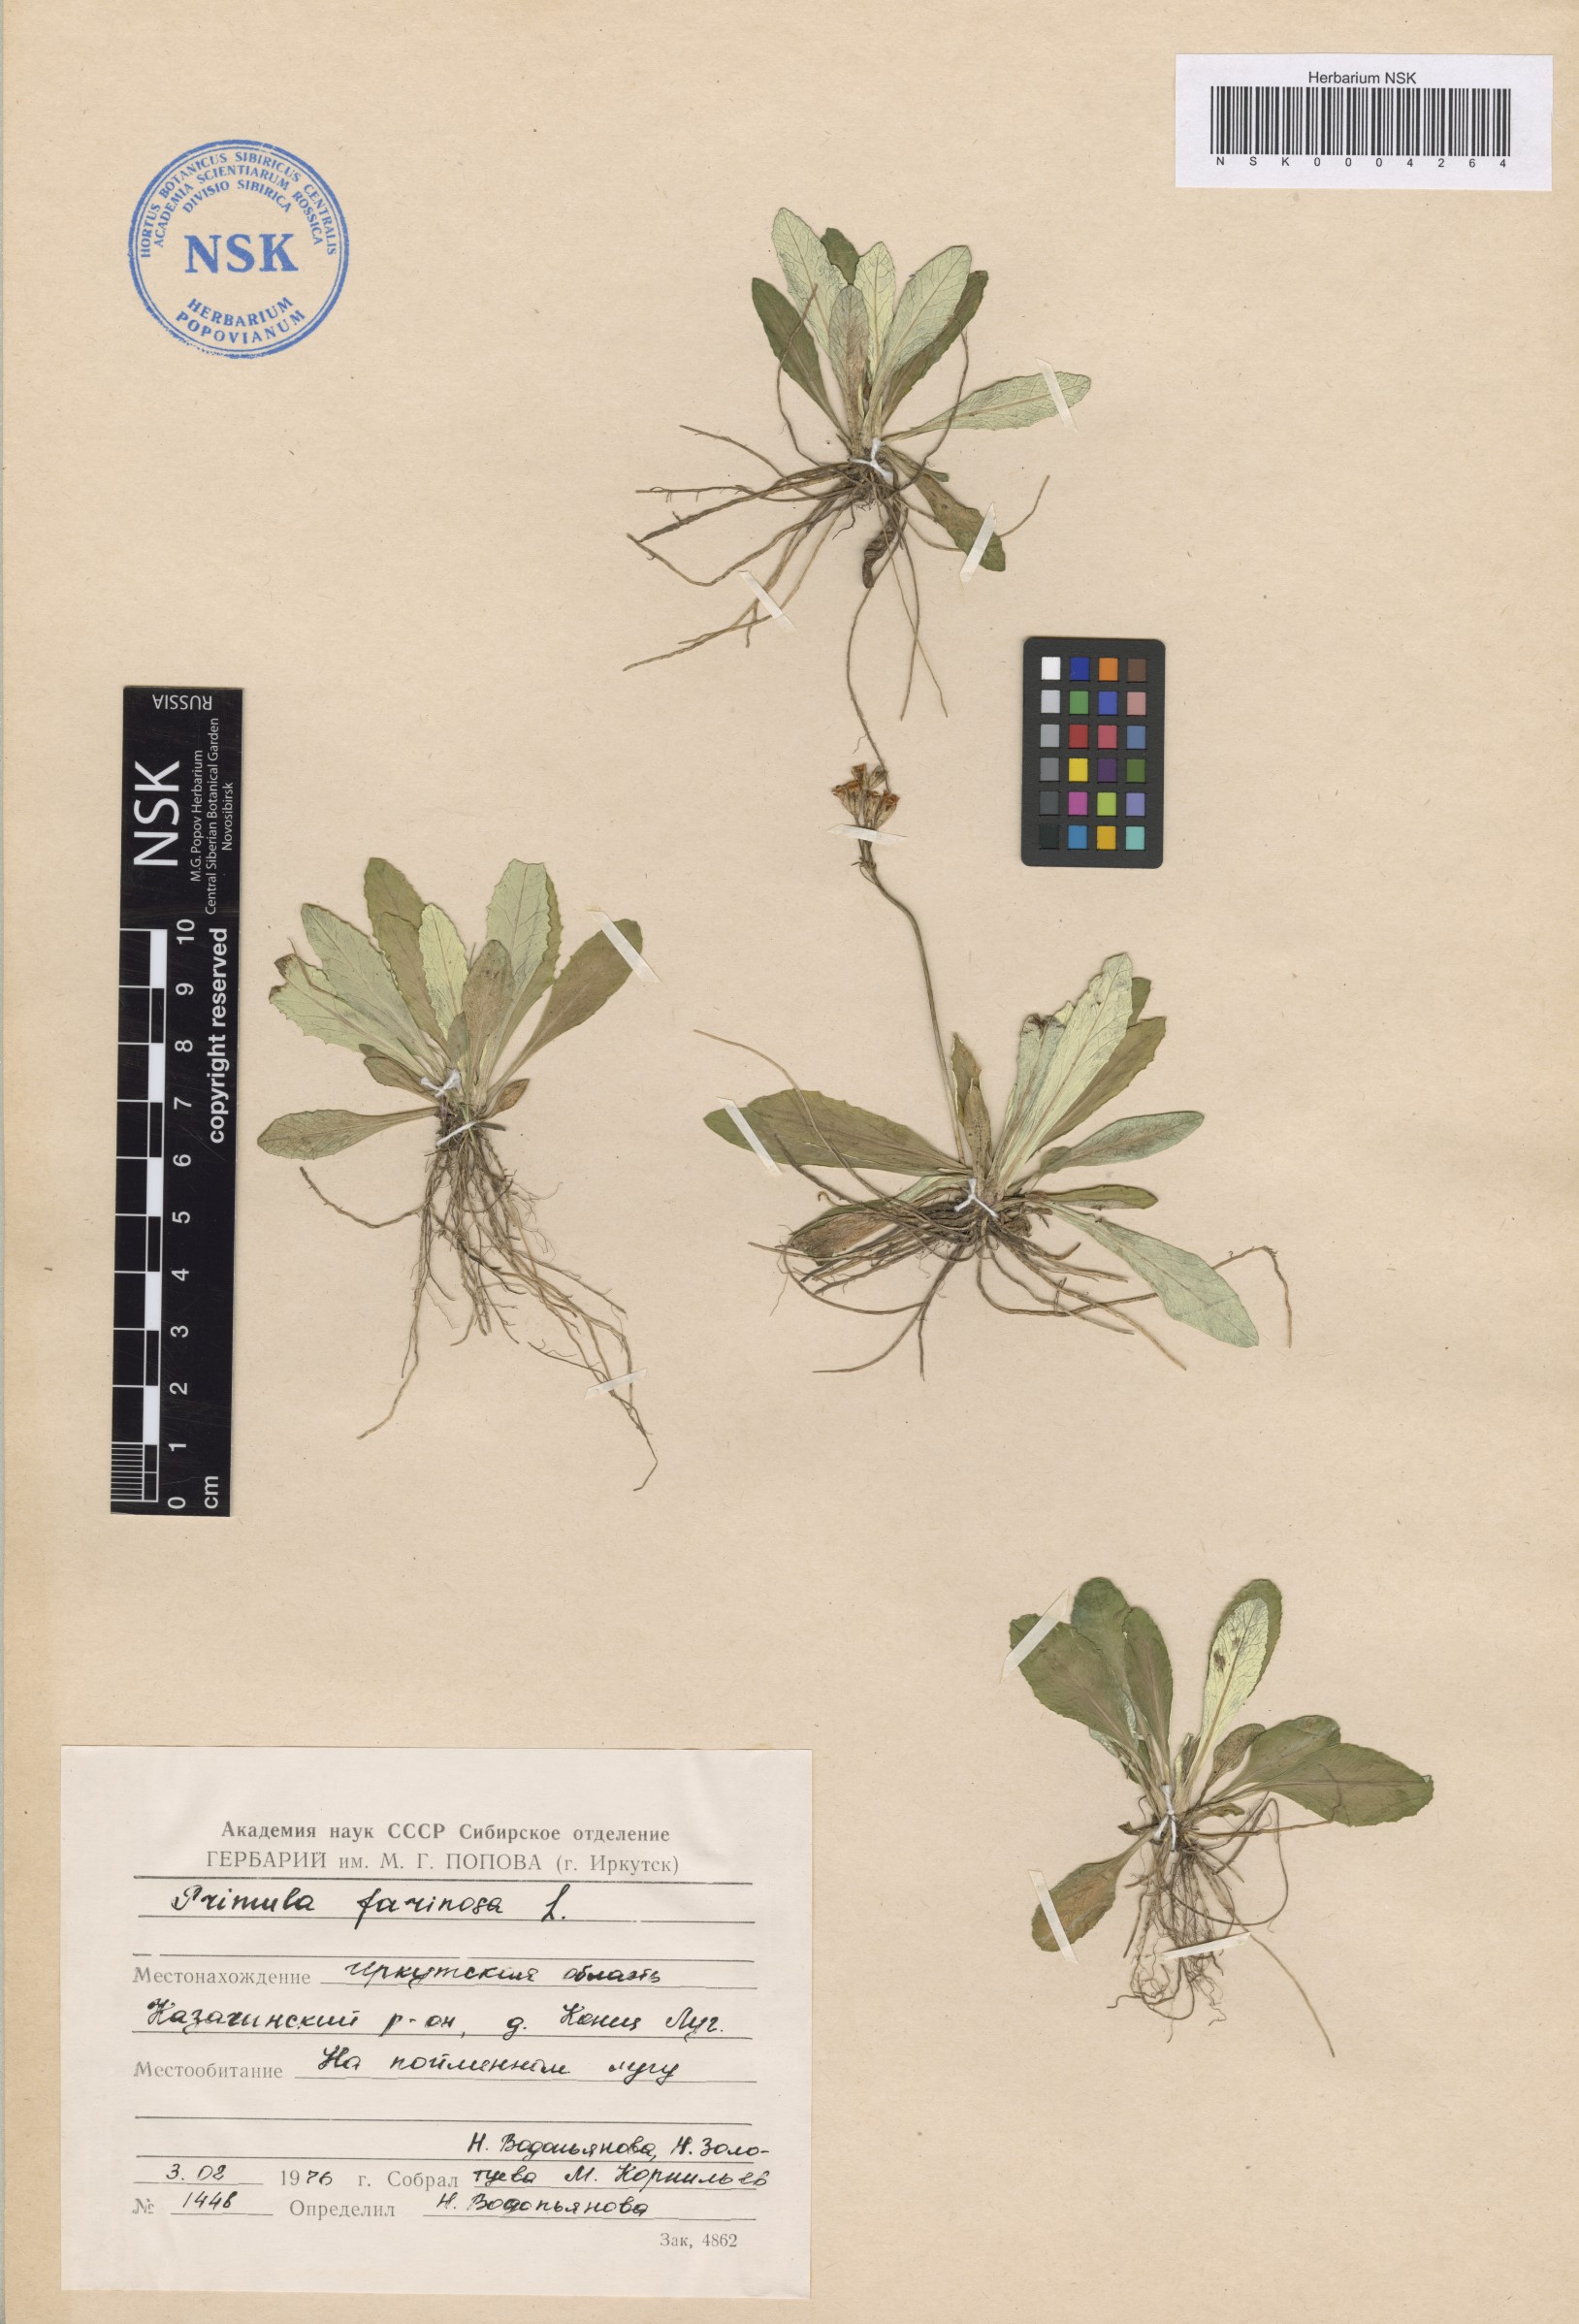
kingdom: Plantae
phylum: Tracheophyta
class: Magnoliopsida
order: Ericales
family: Primulaceae
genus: Primula
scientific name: Primula farinosa
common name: Bird's-eye primrose
